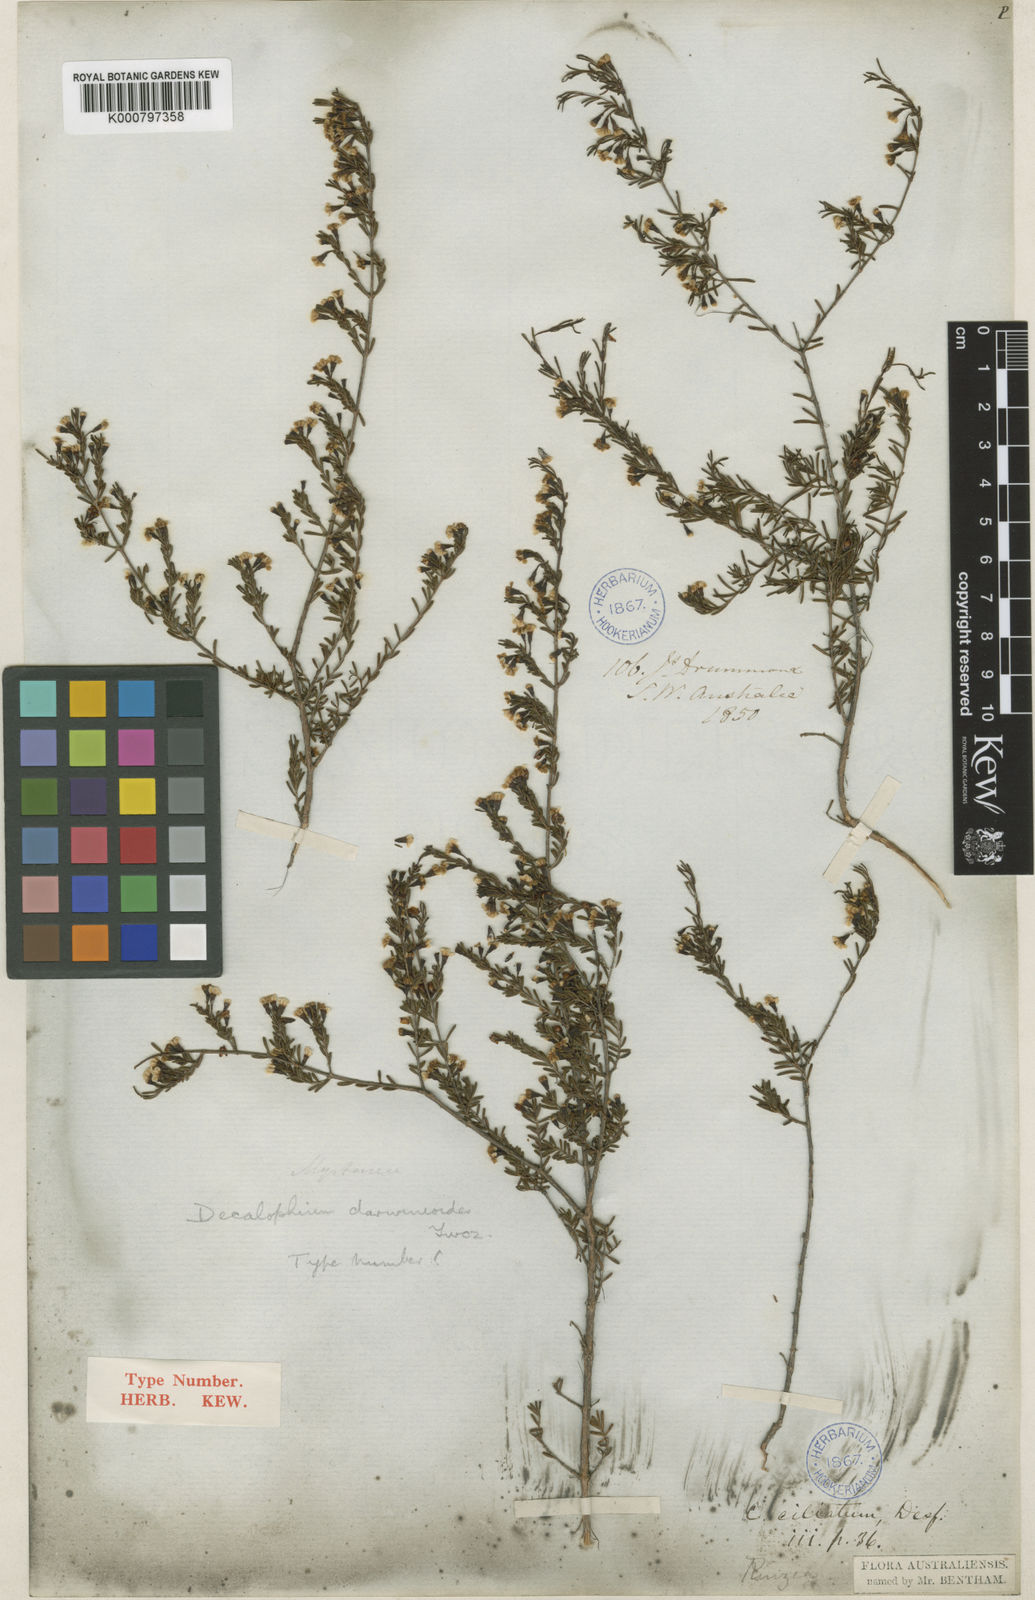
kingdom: Plantae
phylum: Tracheophyta
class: Magnoliopsida
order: Myrtales
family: Myrtaceae
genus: Chamelaucium
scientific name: Chamelaucium
